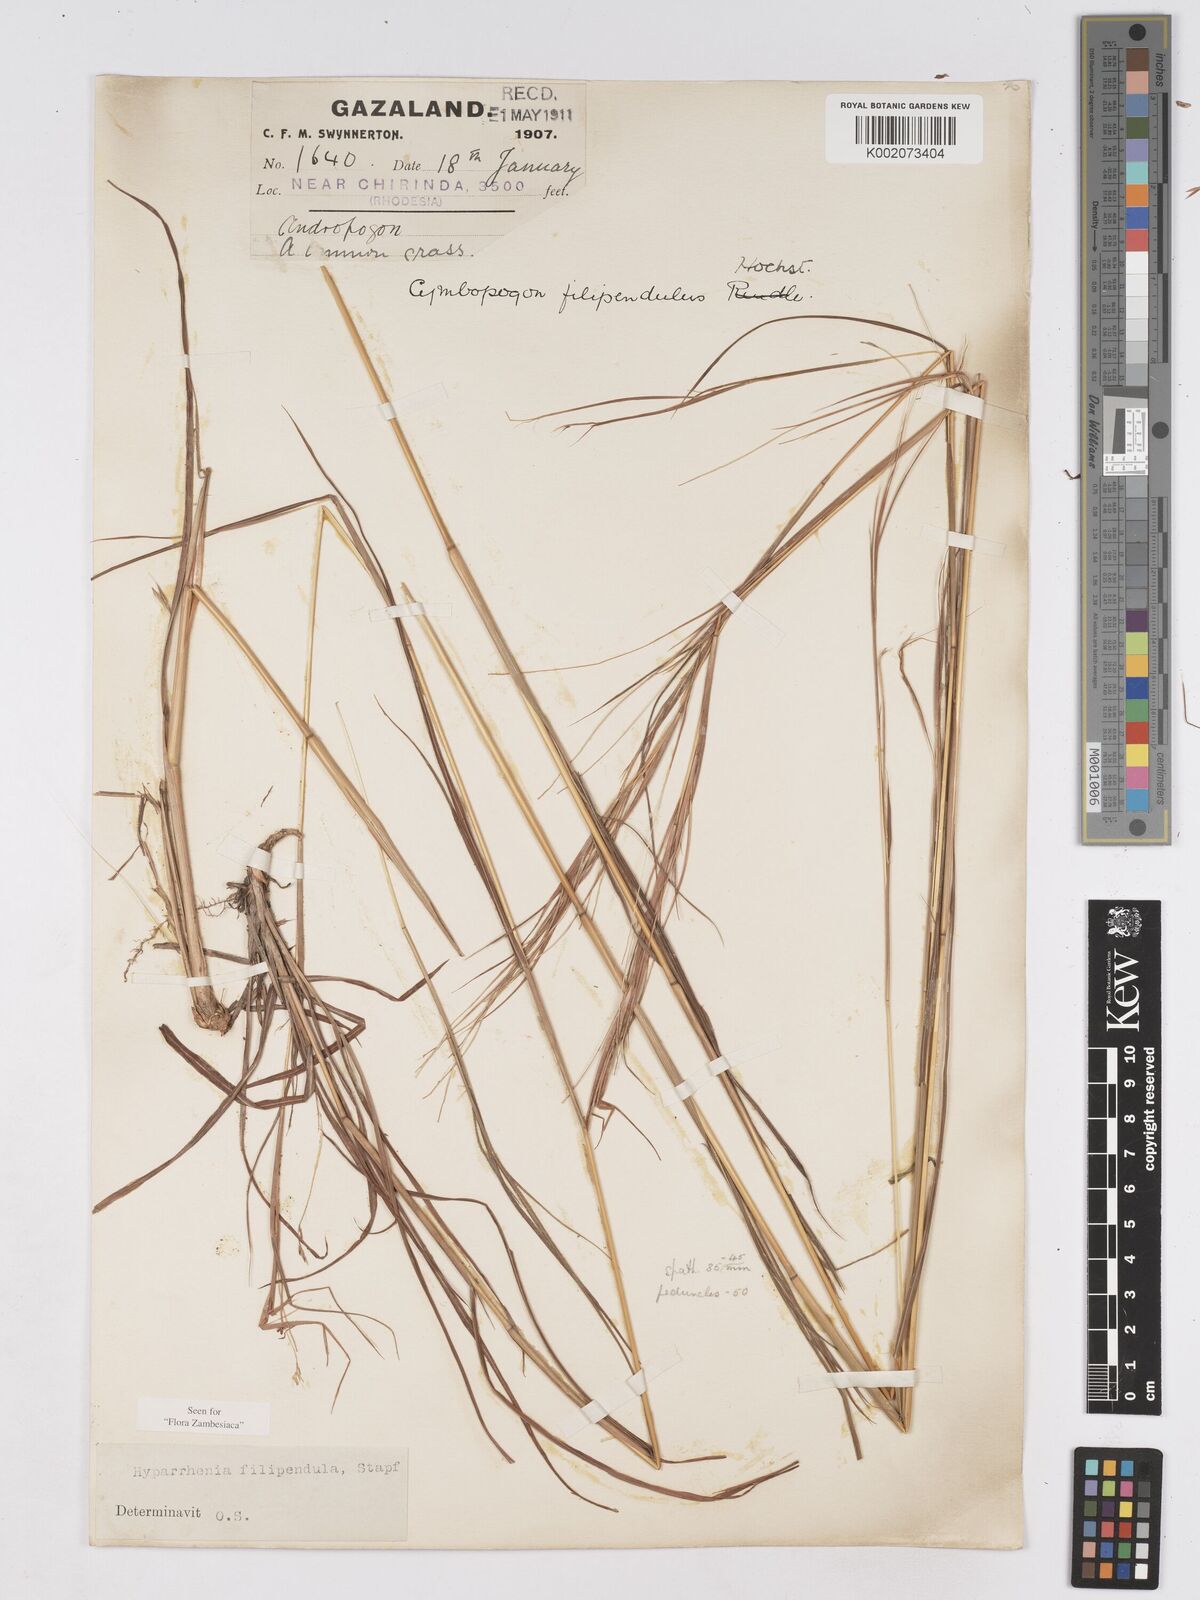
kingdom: Plantae
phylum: Tracheophyta
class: Liliopsida
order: Poales
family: Poaceae
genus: Hyparrhenia
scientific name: Hyparrhenia filipendula
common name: Tambookie grass
